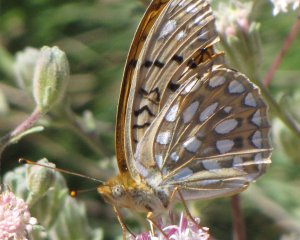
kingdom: Animalia
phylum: Arthropoda
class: Insecta
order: Lepidoptera
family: Nymphalidae
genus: Speyeria
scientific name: Speyeria egleis
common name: Great Basin Fritillary
